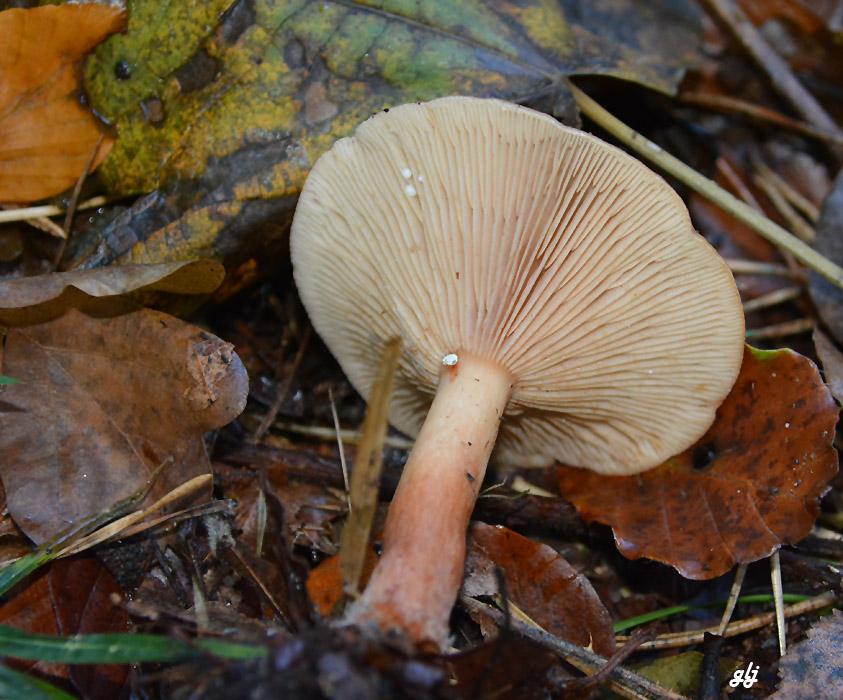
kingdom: Fungi
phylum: Basidiomycota
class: Agaricomycetes
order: Russulales
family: Russulaceae
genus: Lactarius
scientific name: Lactarius subdulcis
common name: sødlig mælkehat
